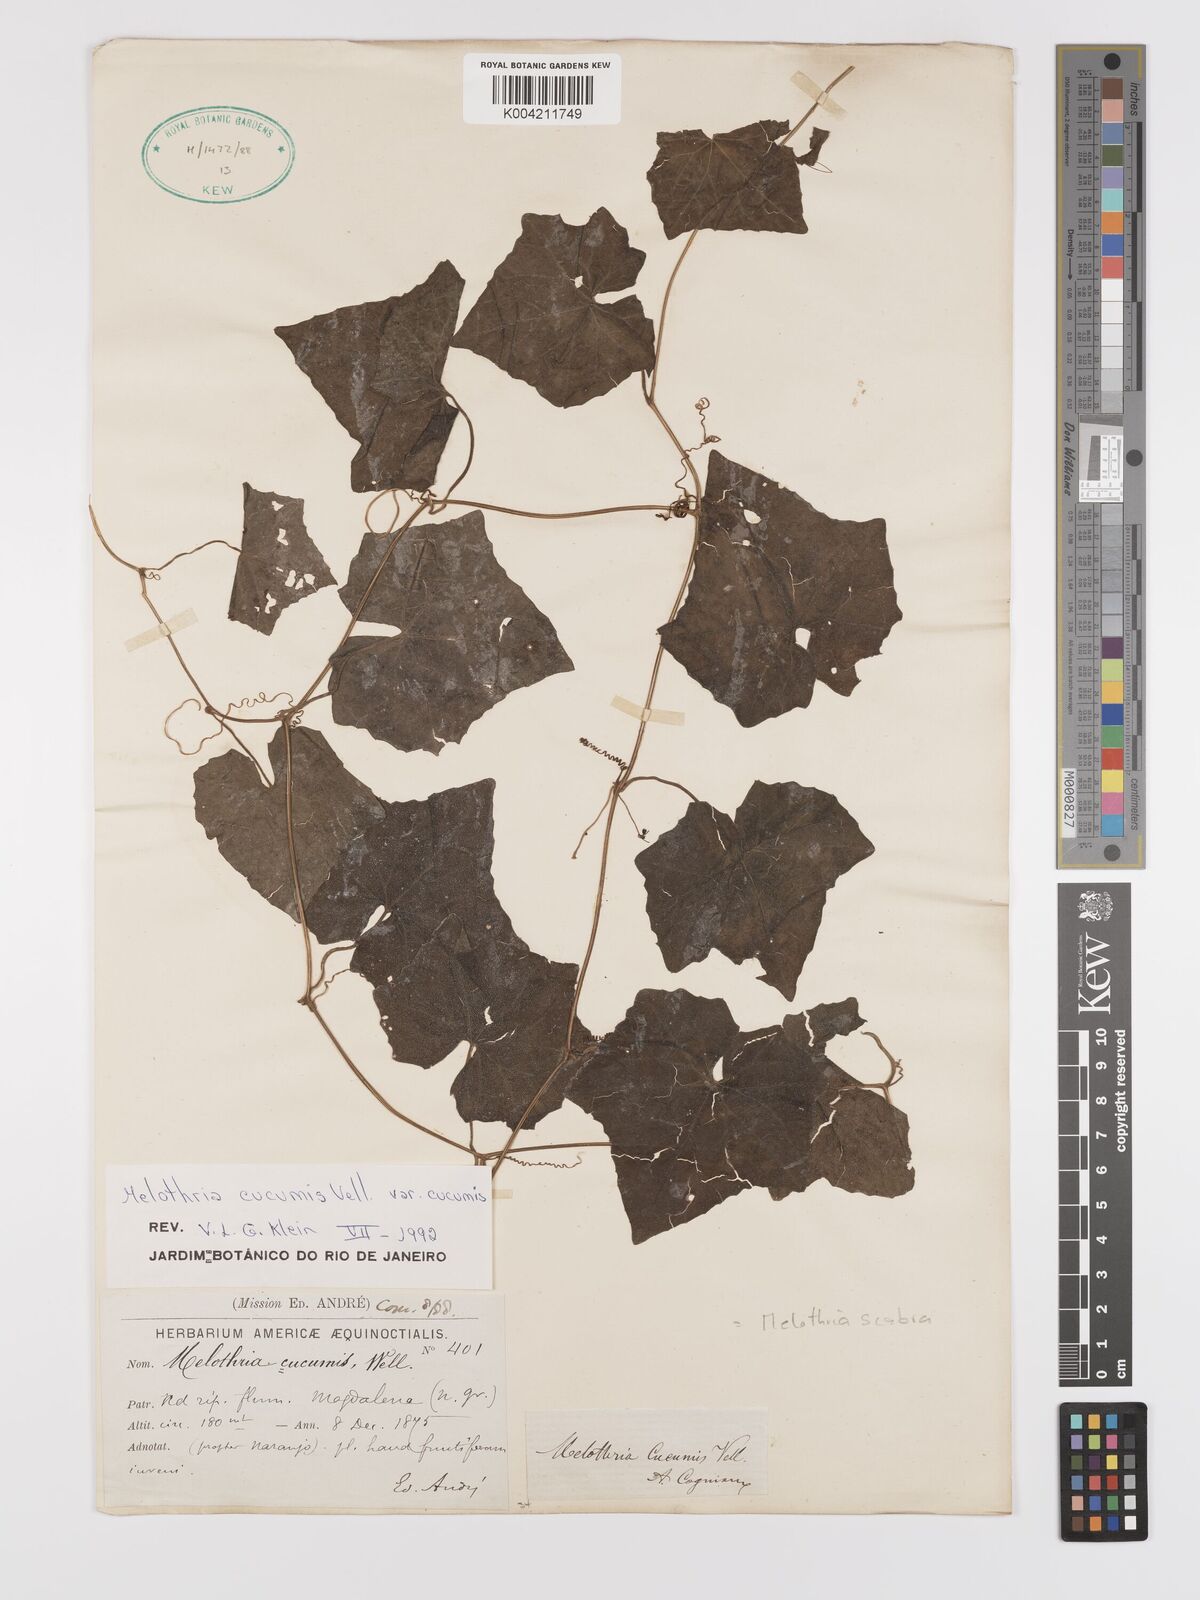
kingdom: Plantae
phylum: Tracheophyta
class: Magnoliopsida
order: Cucurbitales
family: Cucurbitaceae
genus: Melothria
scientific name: Melothria cucumis
